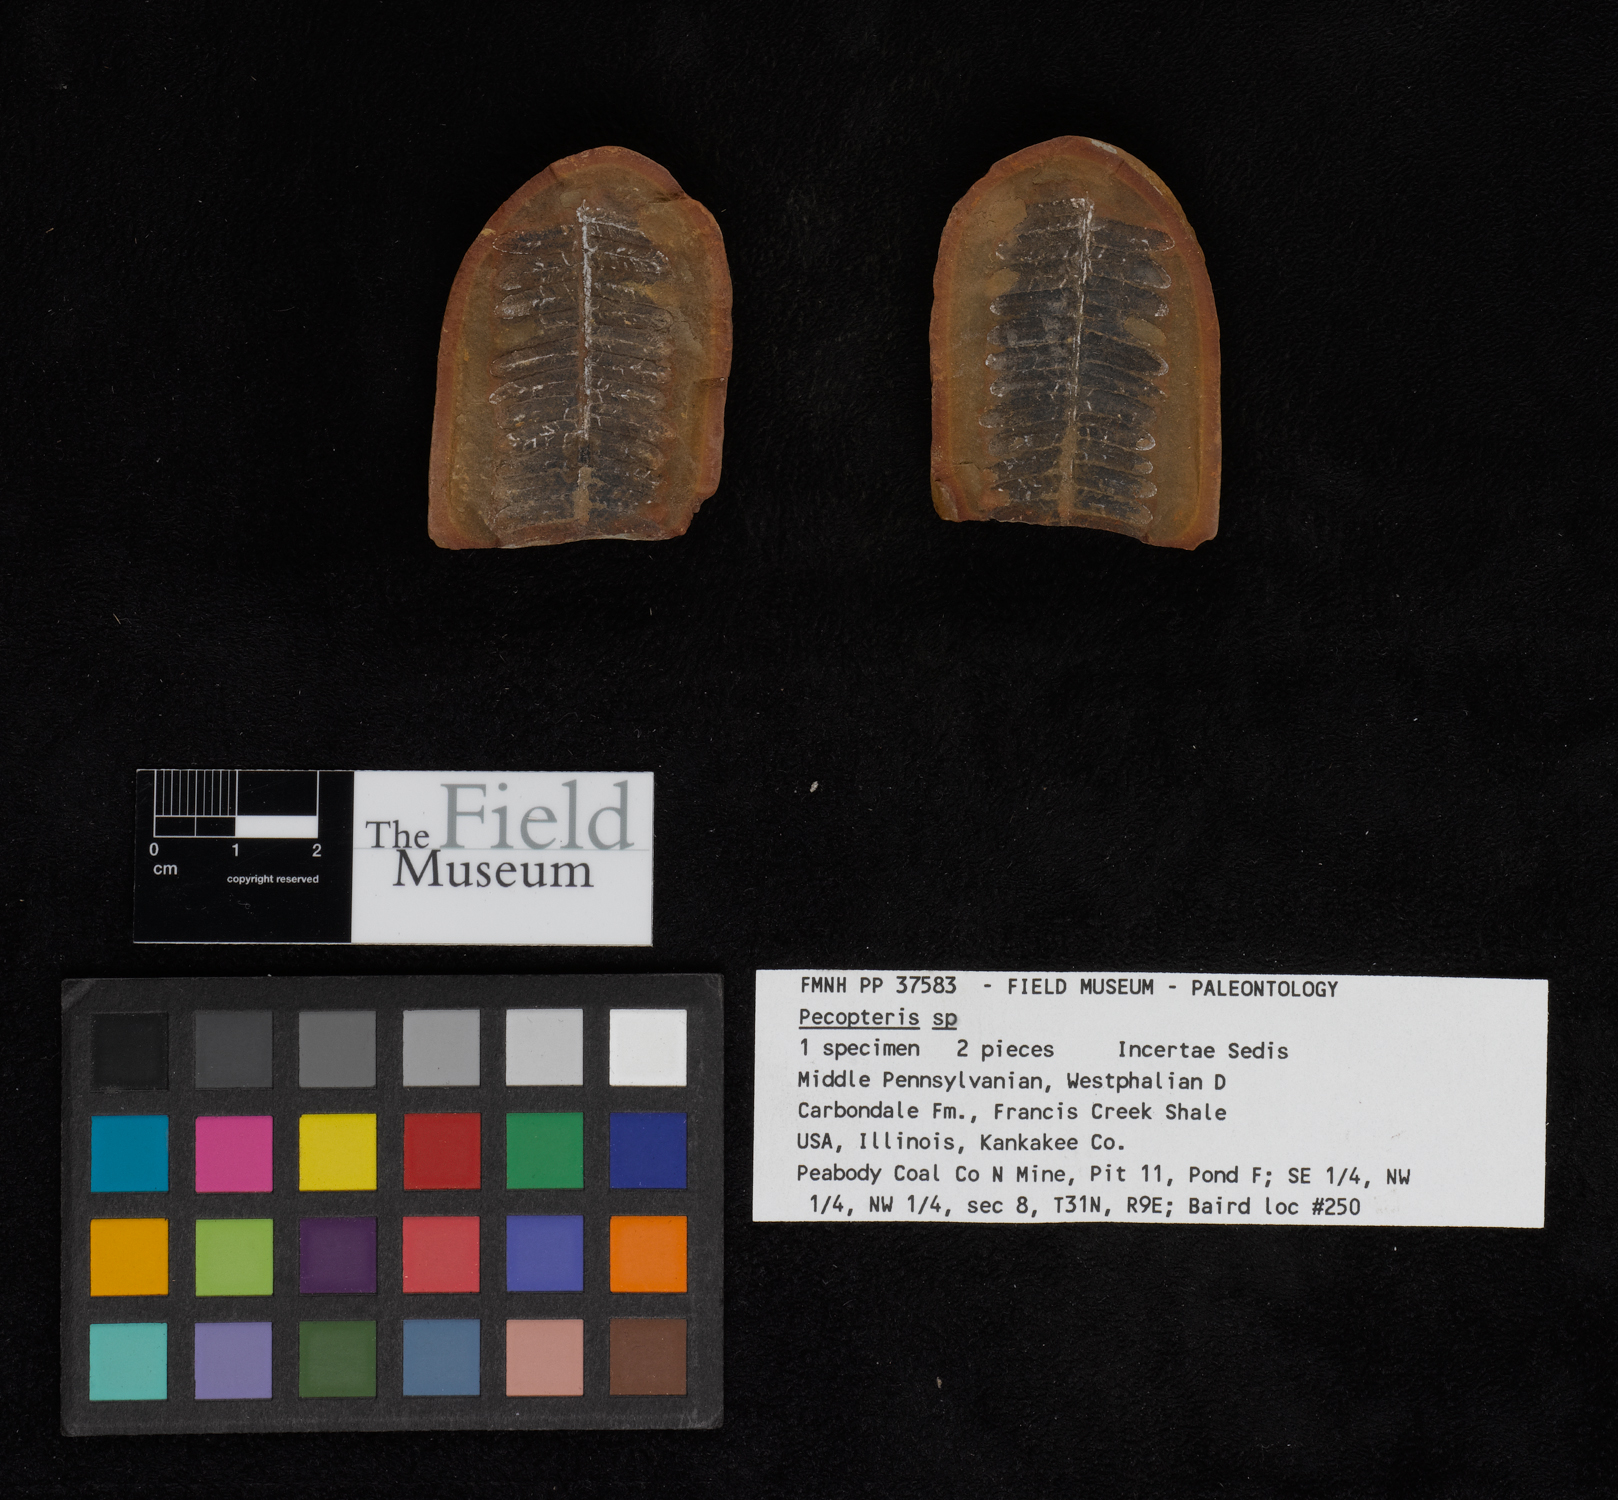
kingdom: Plantae
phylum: Tracheophyta
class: Polypodiopsida
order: Marattiales
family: Asterothecaceae
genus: Pecopteris
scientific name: Pecopteris
